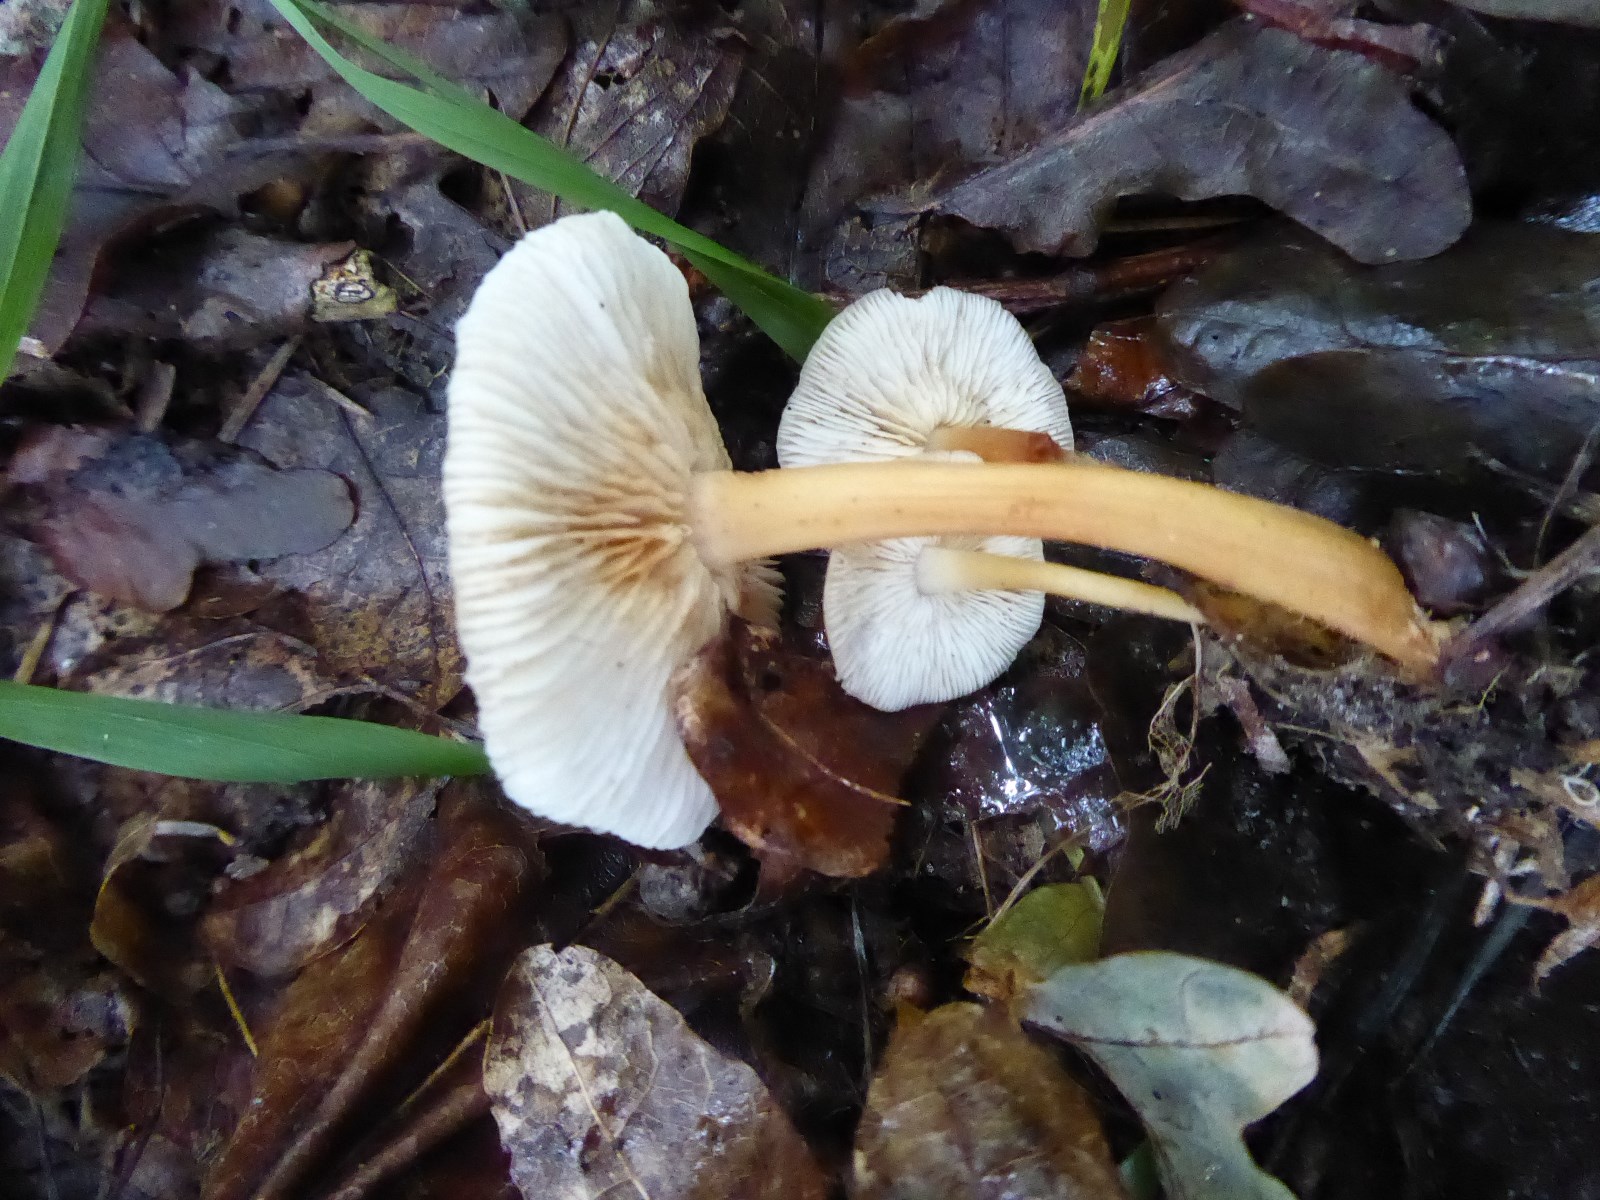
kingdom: Fungi
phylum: Basidiomycota
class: Agaricomycetes
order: Agaricales
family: Omphalotaceae
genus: Gymnopus
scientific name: Gymnopus
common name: fladhat
